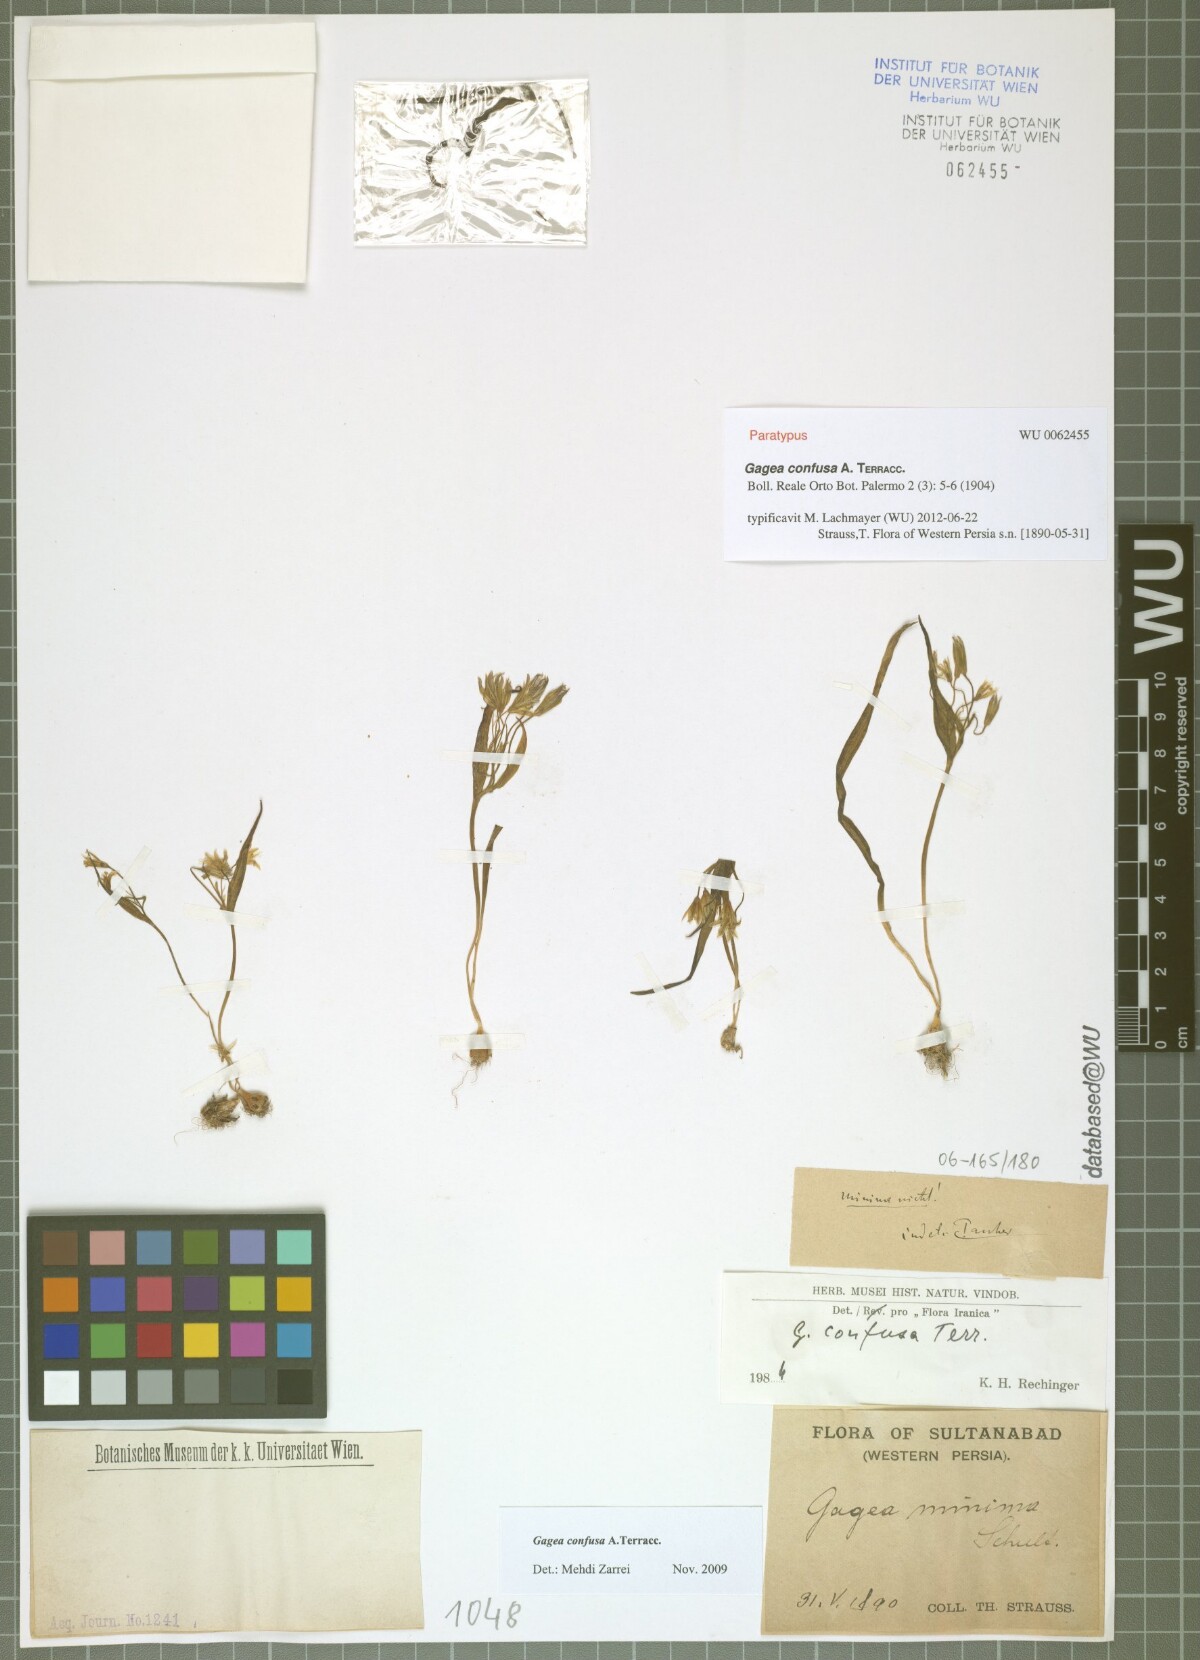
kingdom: Plantae
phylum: Tracheophyta
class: Liliopsida
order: Liliales
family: Liliaceae
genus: Gagea
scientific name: Gagea confusa
